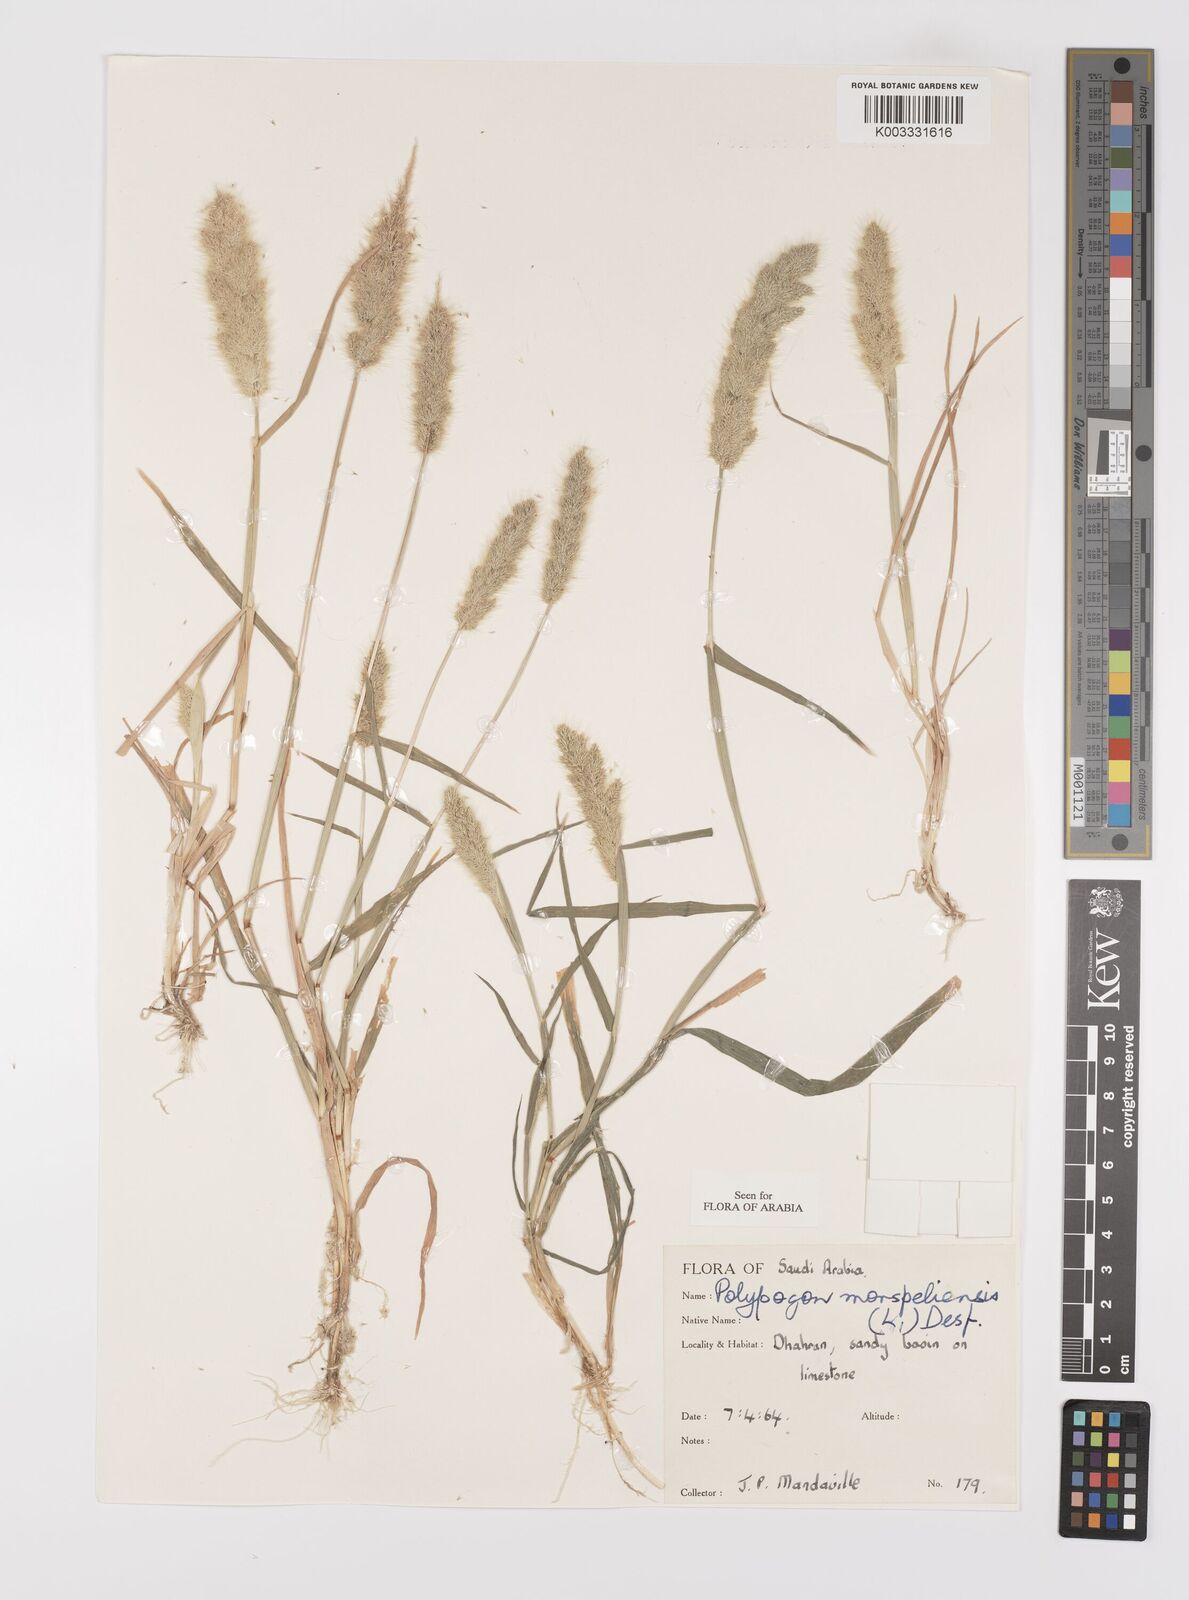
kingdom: Plantae
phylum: Tracheophyta
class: Liliopsida
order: Poales
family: Poaceae
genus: Polypogon
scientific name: Polypogon monspeliensis
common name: Annual rabbitsfoot grass
